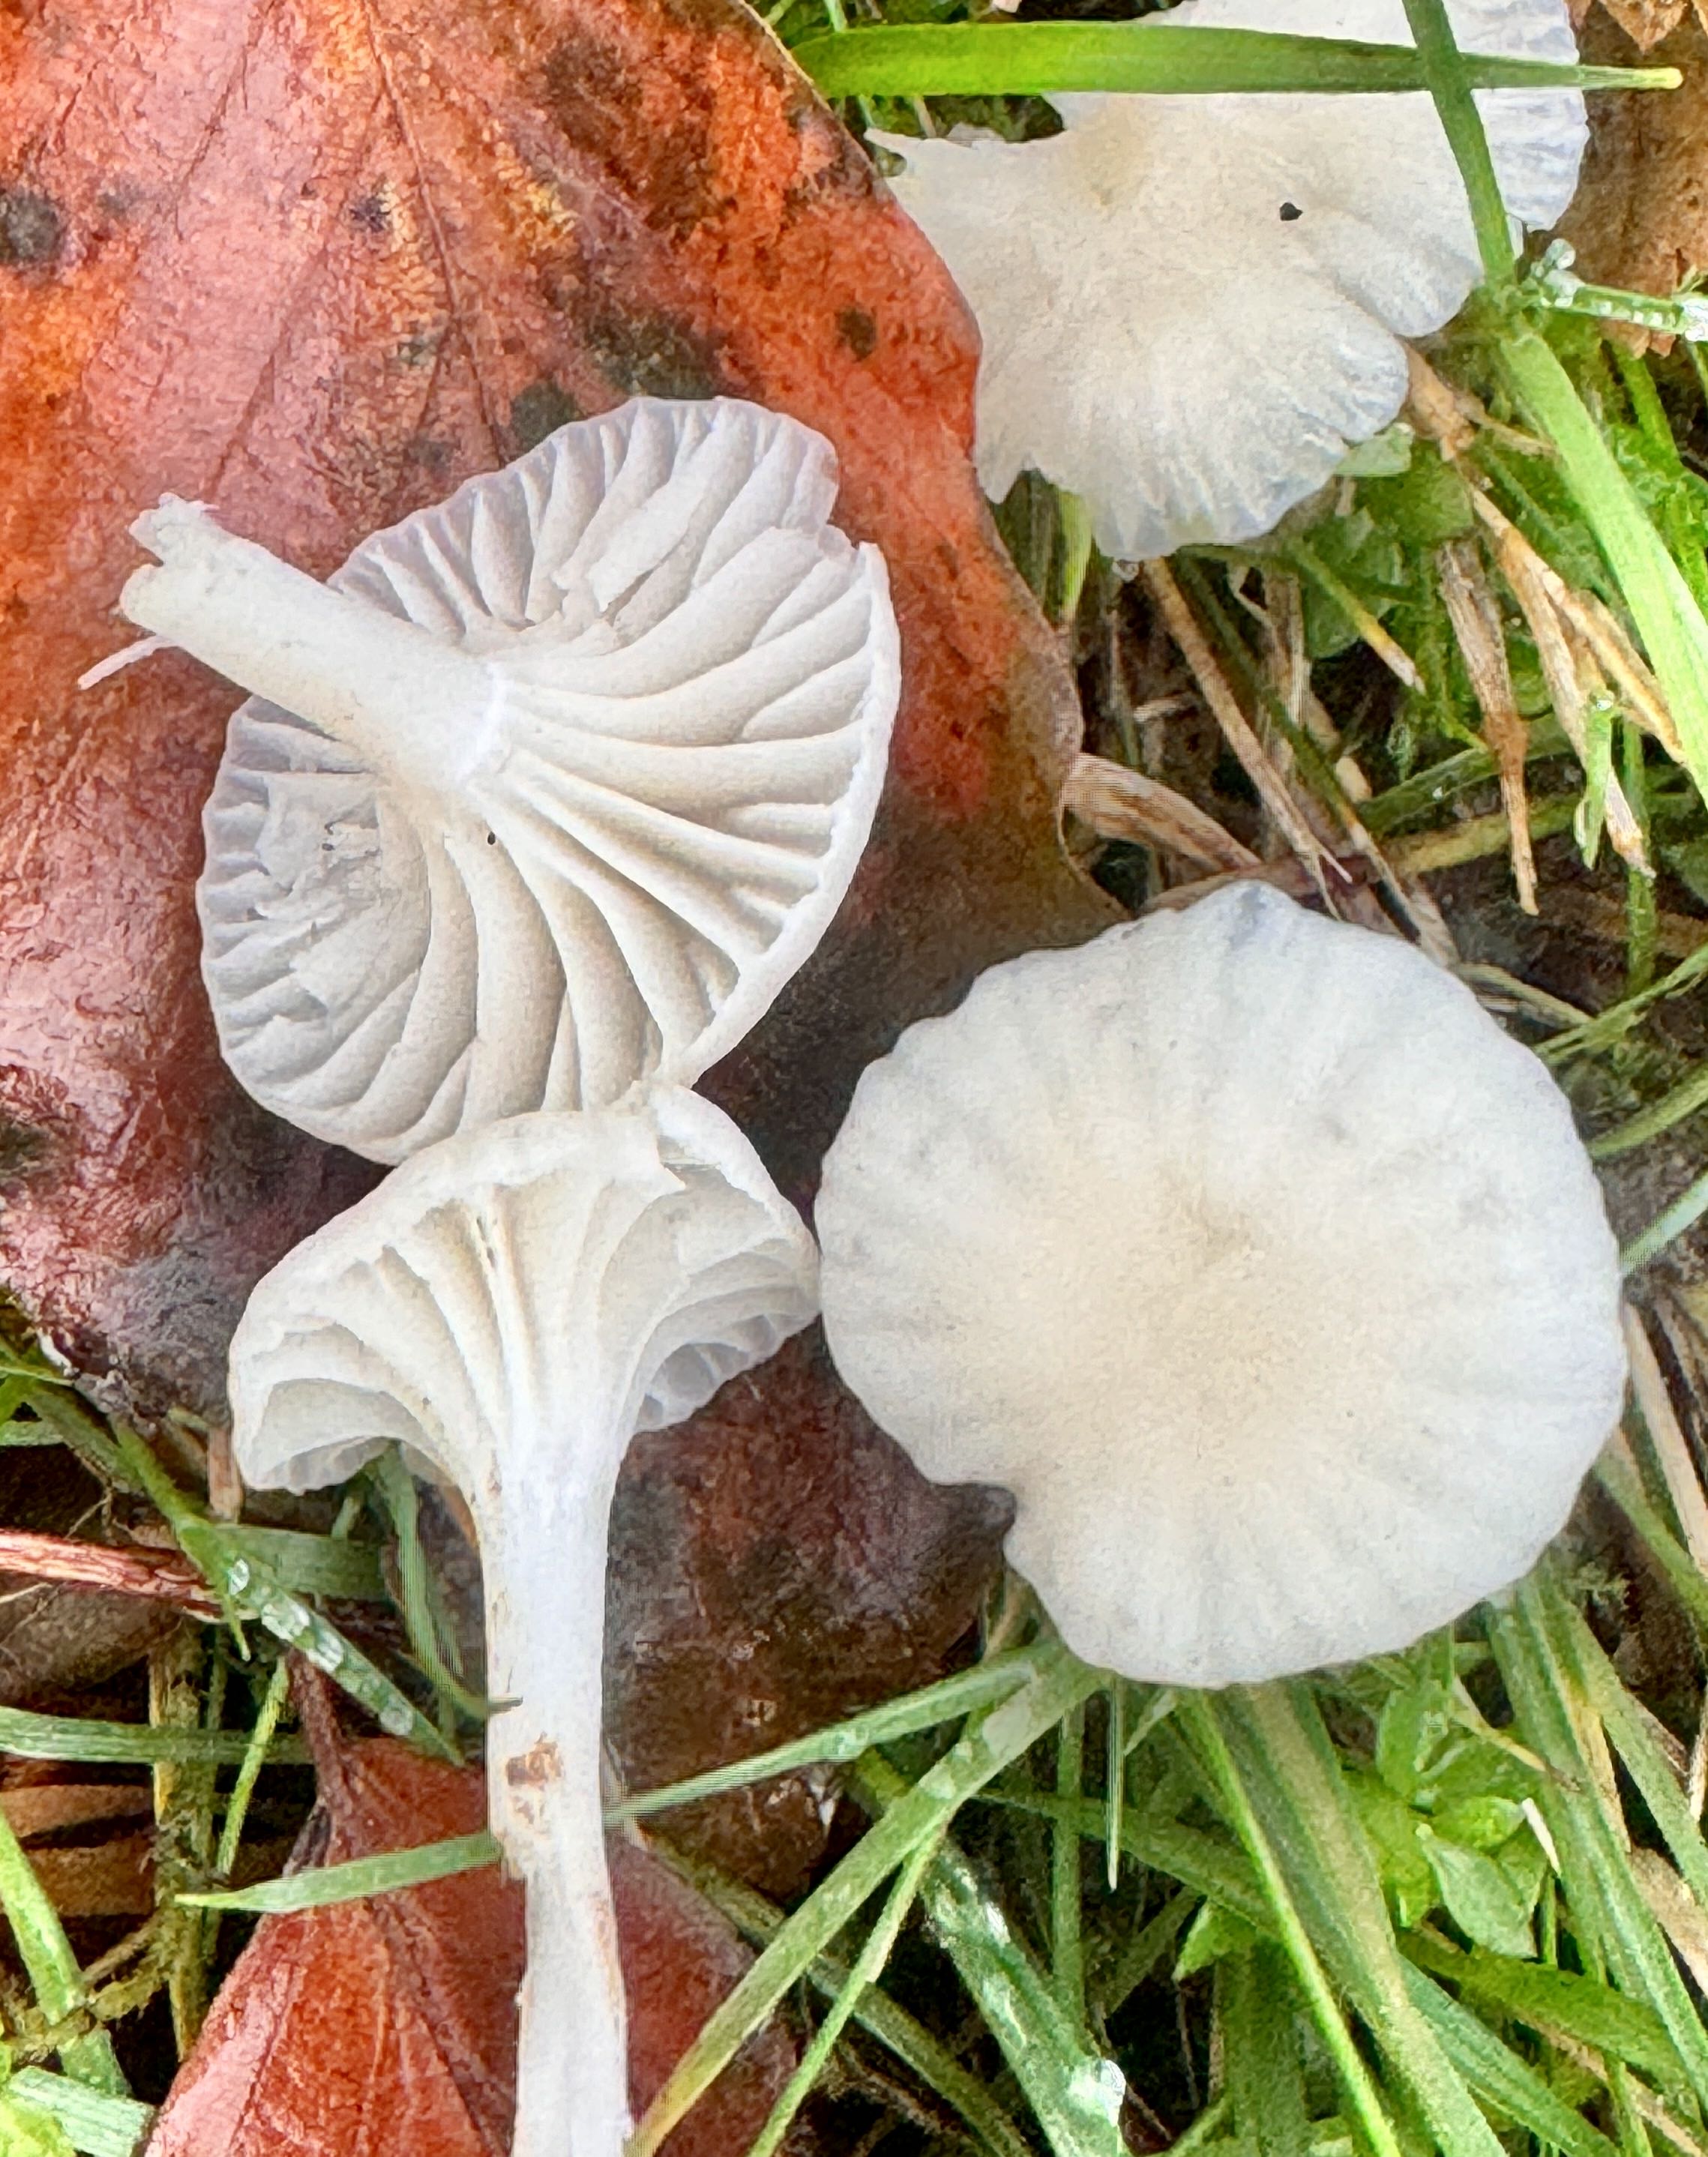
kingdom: Fungi
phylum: Basidiomycota
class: Agaricomycetes
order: Agaricales
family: Hygrophoraceae
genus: Cuphophyllus
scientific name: Cuphophyllus virgineus
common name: snehvid vokshat
